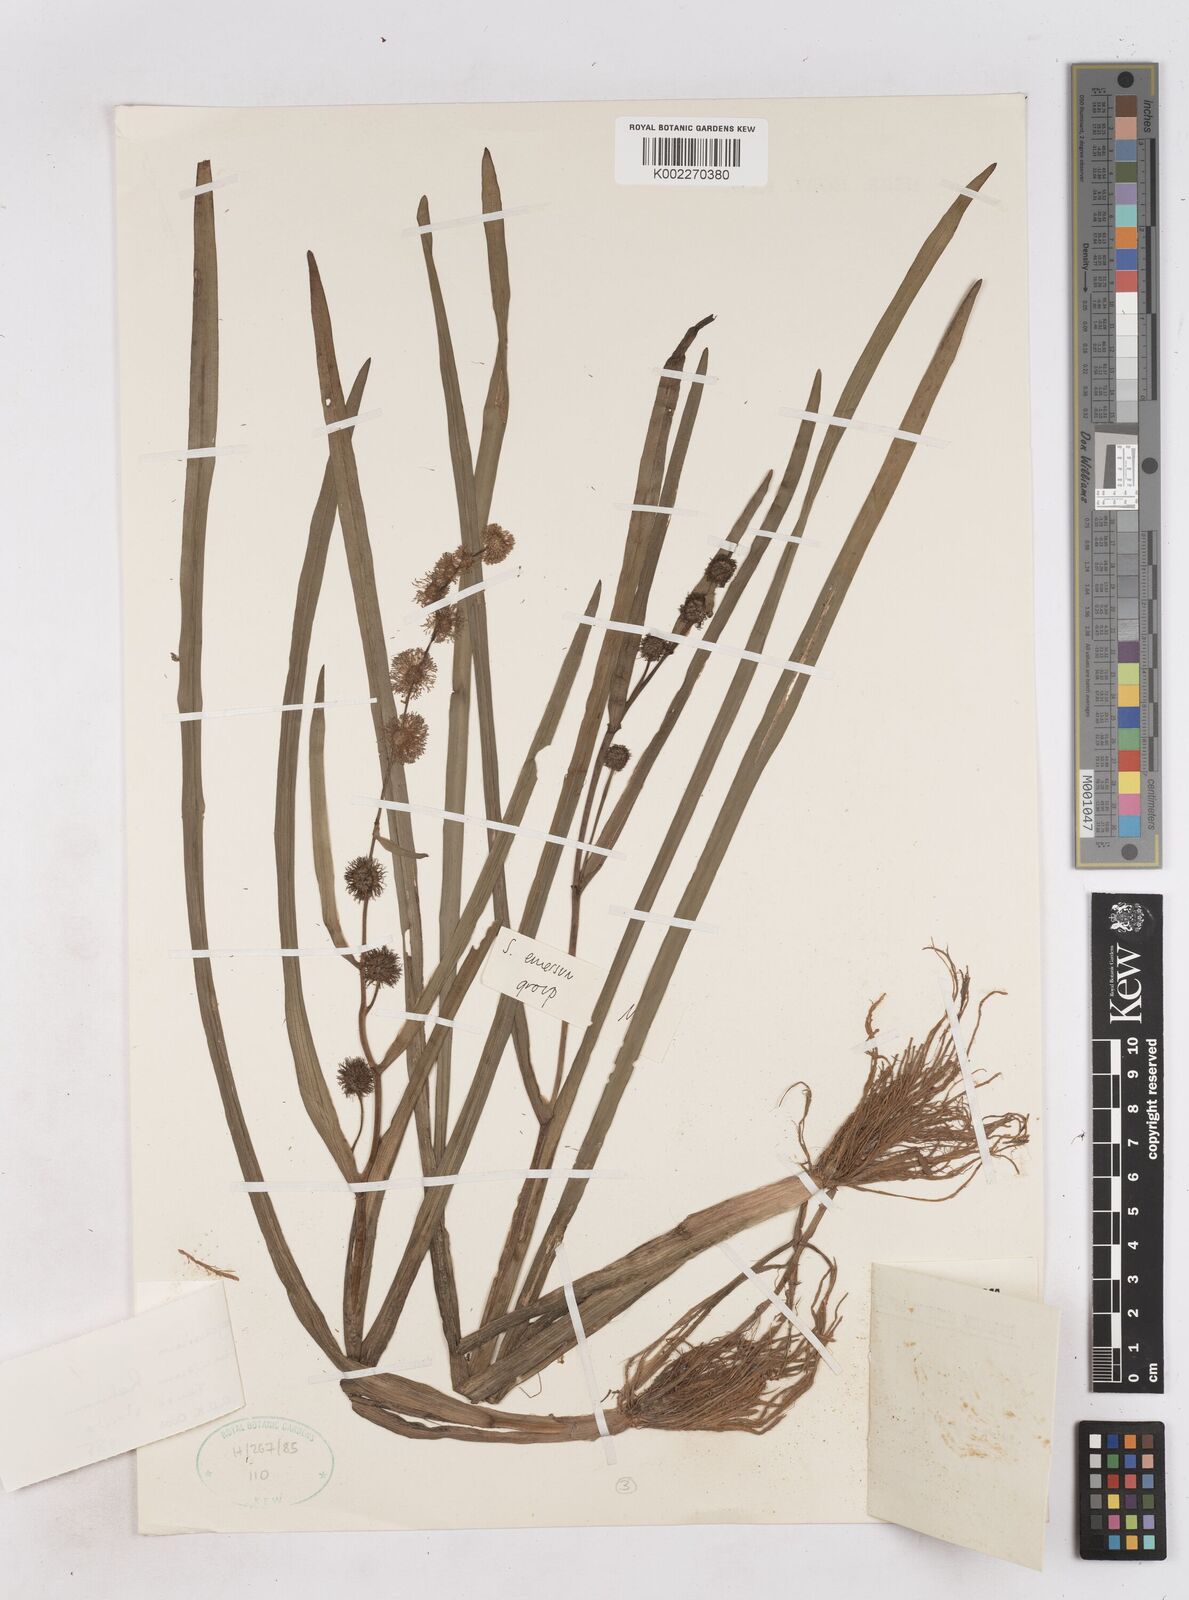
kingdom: Plantae
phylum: Tracheophyta
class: Liliopsida
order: Poales
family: Typhaceae
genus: Sparganium
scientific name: Sparganium angustifolium
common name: Floating bur-reed
